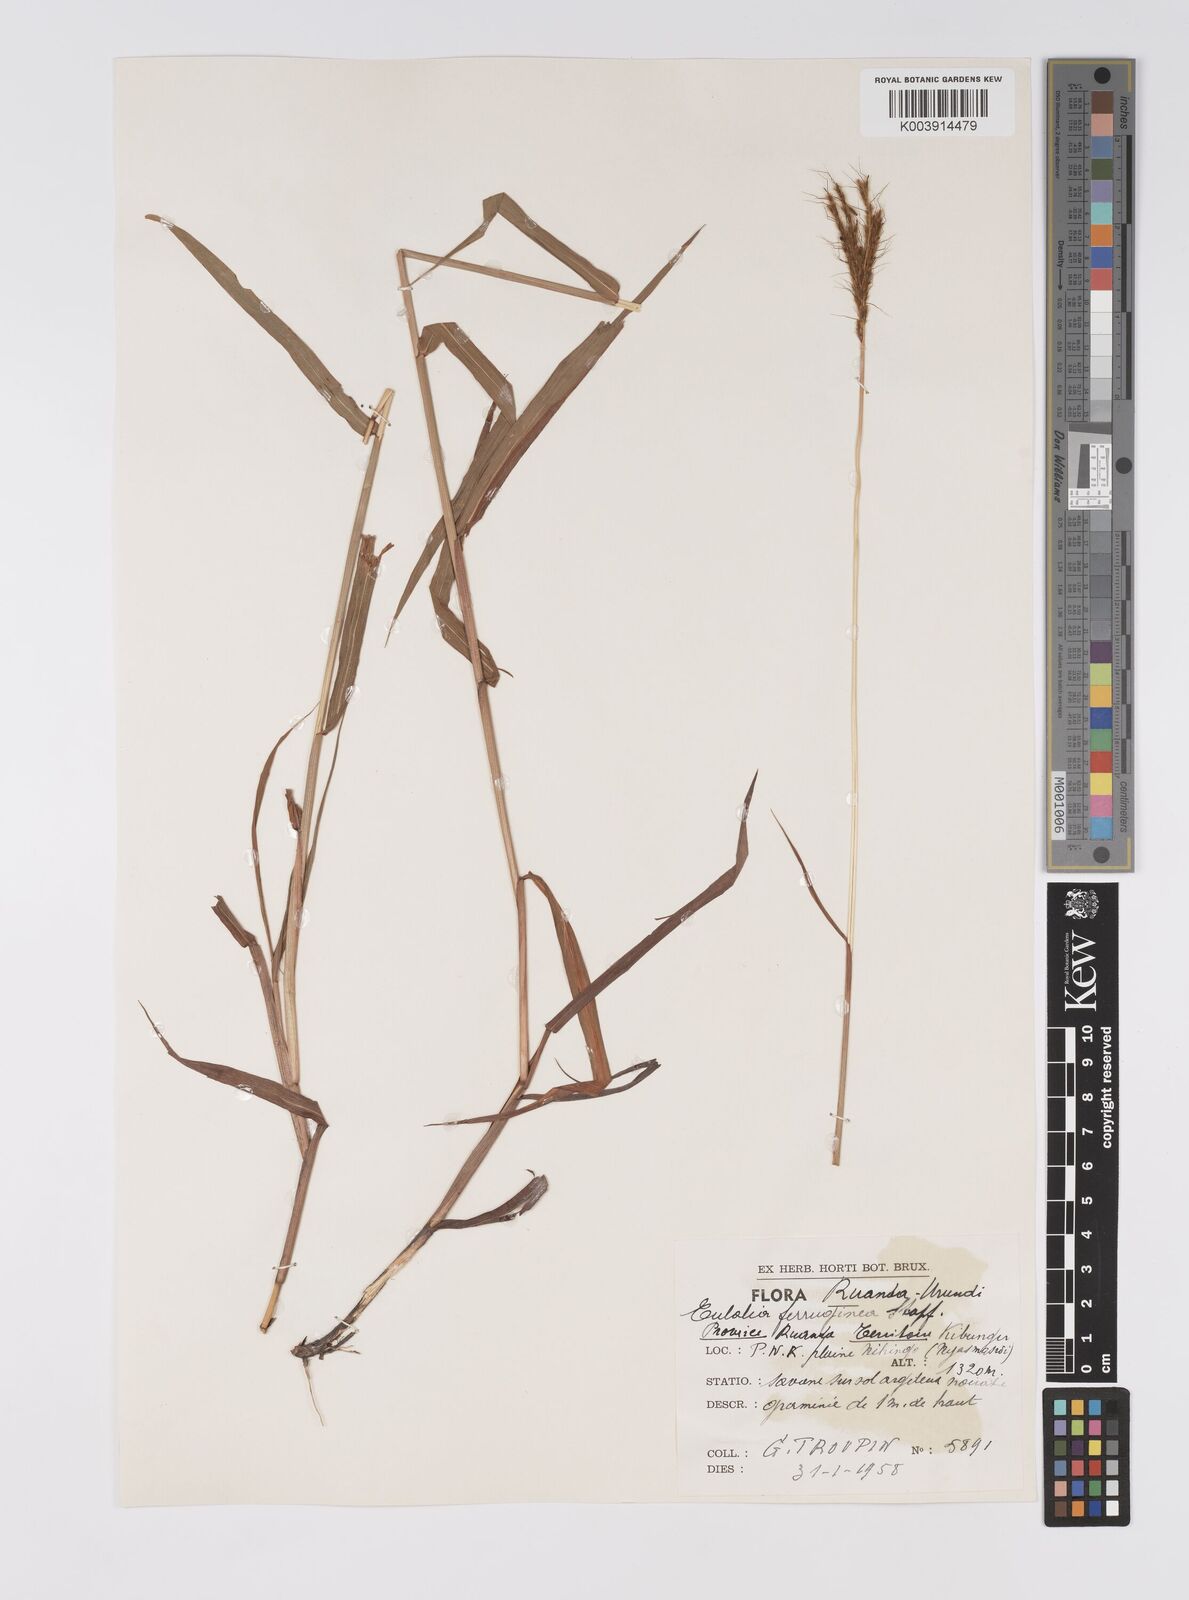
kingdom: Plantae
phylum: Tracheophyta
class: Liliopsida
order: Poales
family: Poaceae
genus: Eulalia
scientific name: Eulalia aurea
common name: Silky browntop
